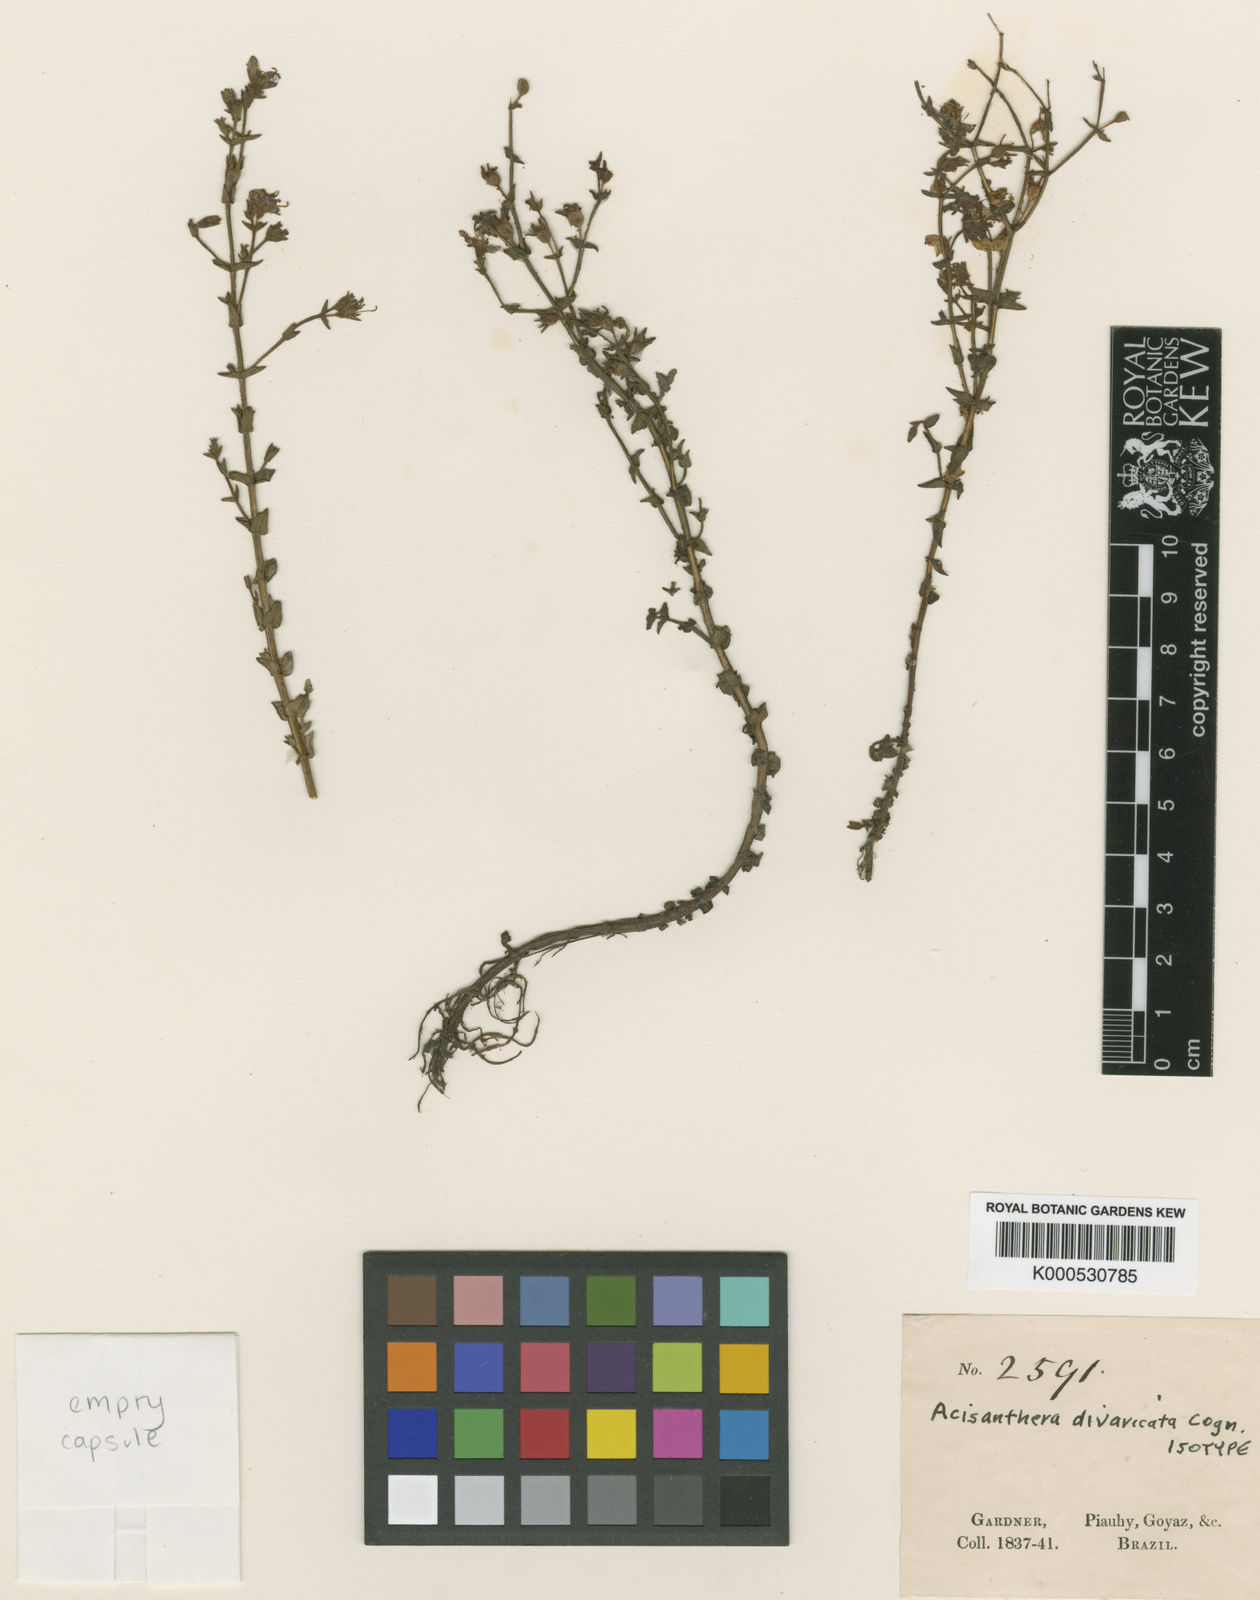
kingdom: Plantae
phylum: Tracheophyta
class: Magnoliopsida
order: Myrtales
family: Melastomataceae
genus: Acisanthera
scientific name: Acisanthera divaricata
